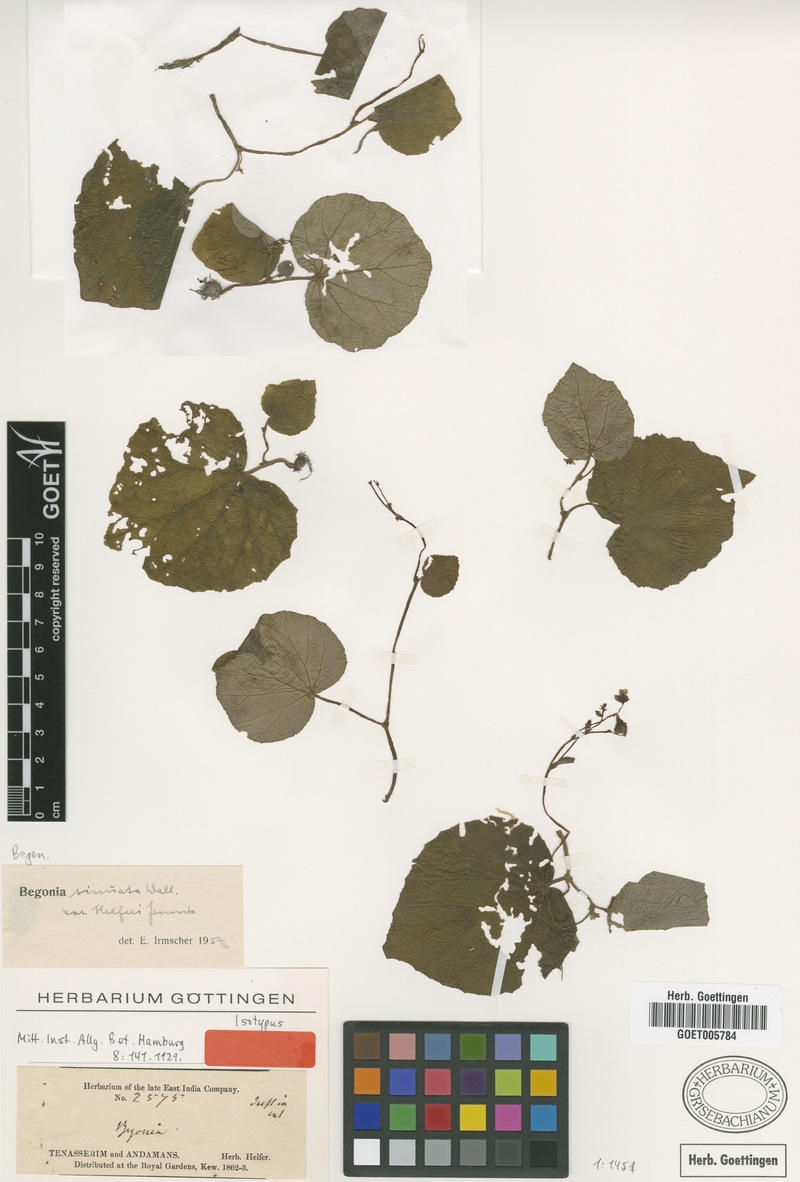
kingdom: Plantae
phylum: Tracheophyta
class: Magnoliopsida
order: Cucurbitales
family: Begoniaceae
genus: Begonia
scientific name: Begonia sinuata
